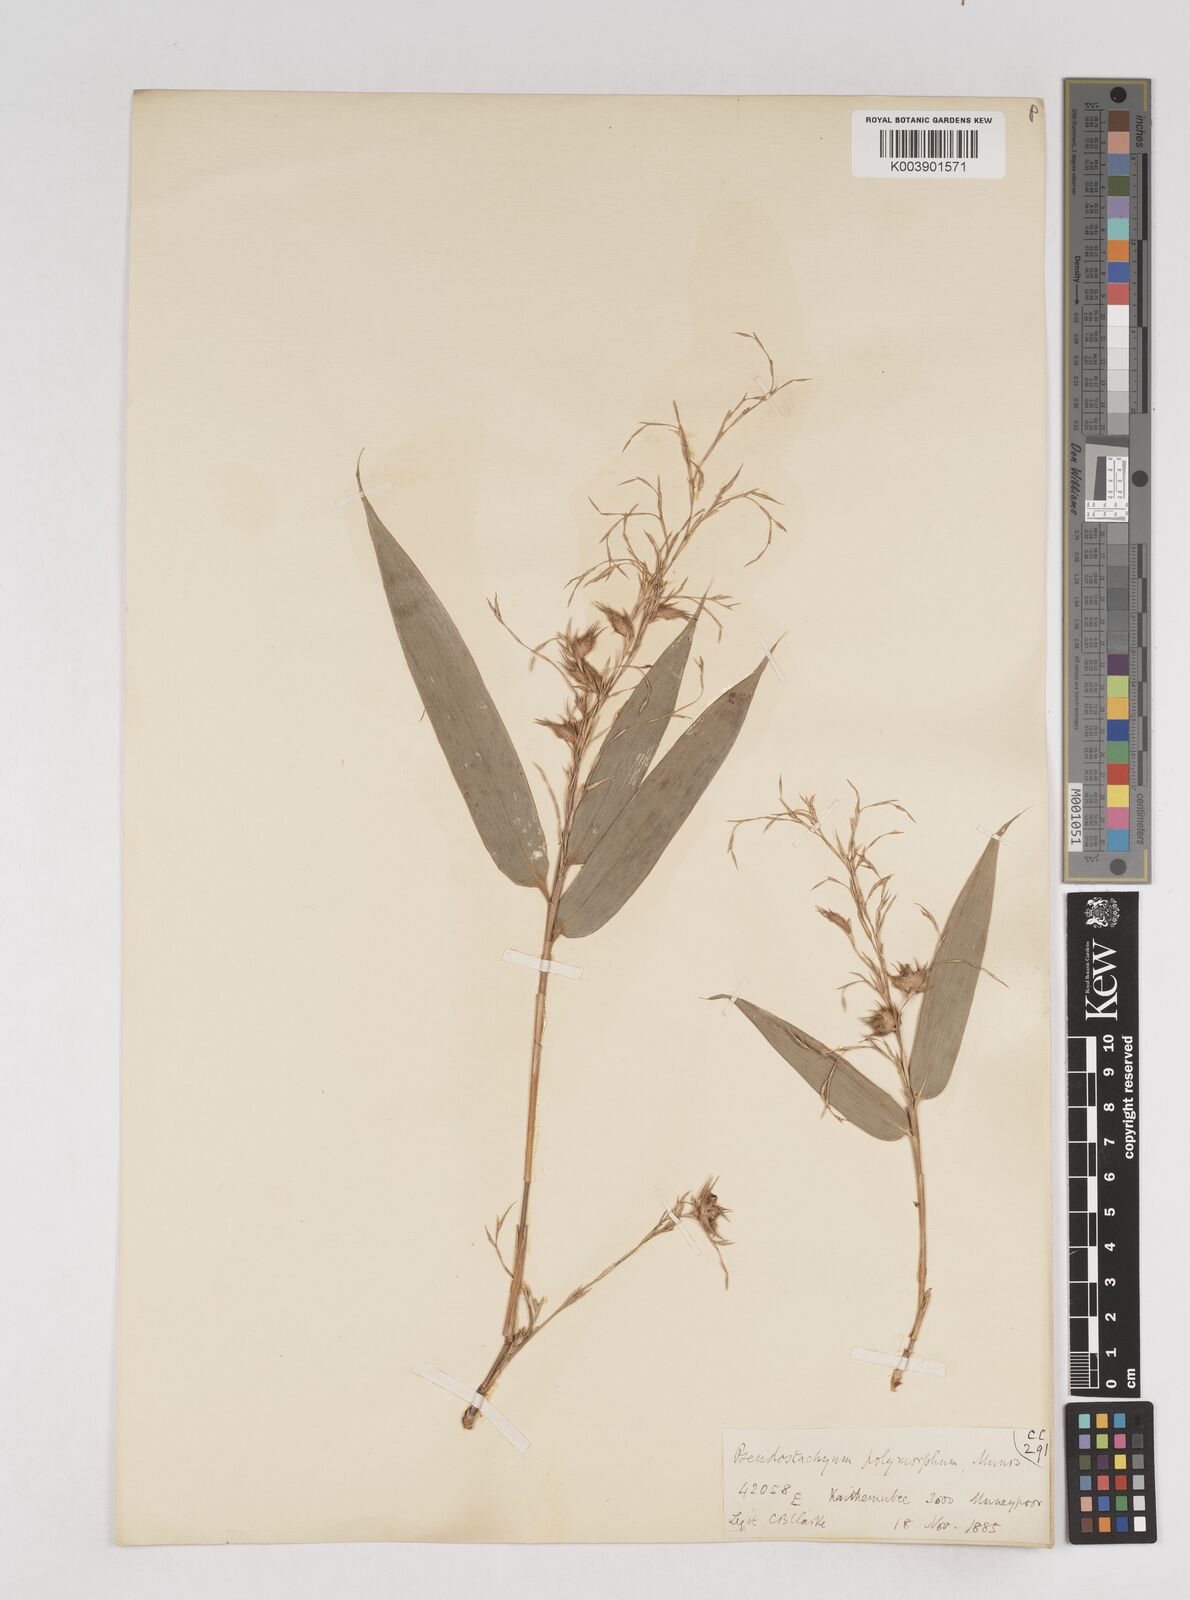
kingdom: Plantae
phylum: Tracheophyta
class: Liliopsida
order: Poales
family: Poaceae
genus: Pseudostachyum
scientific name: Pseudostachyum polymorphum
